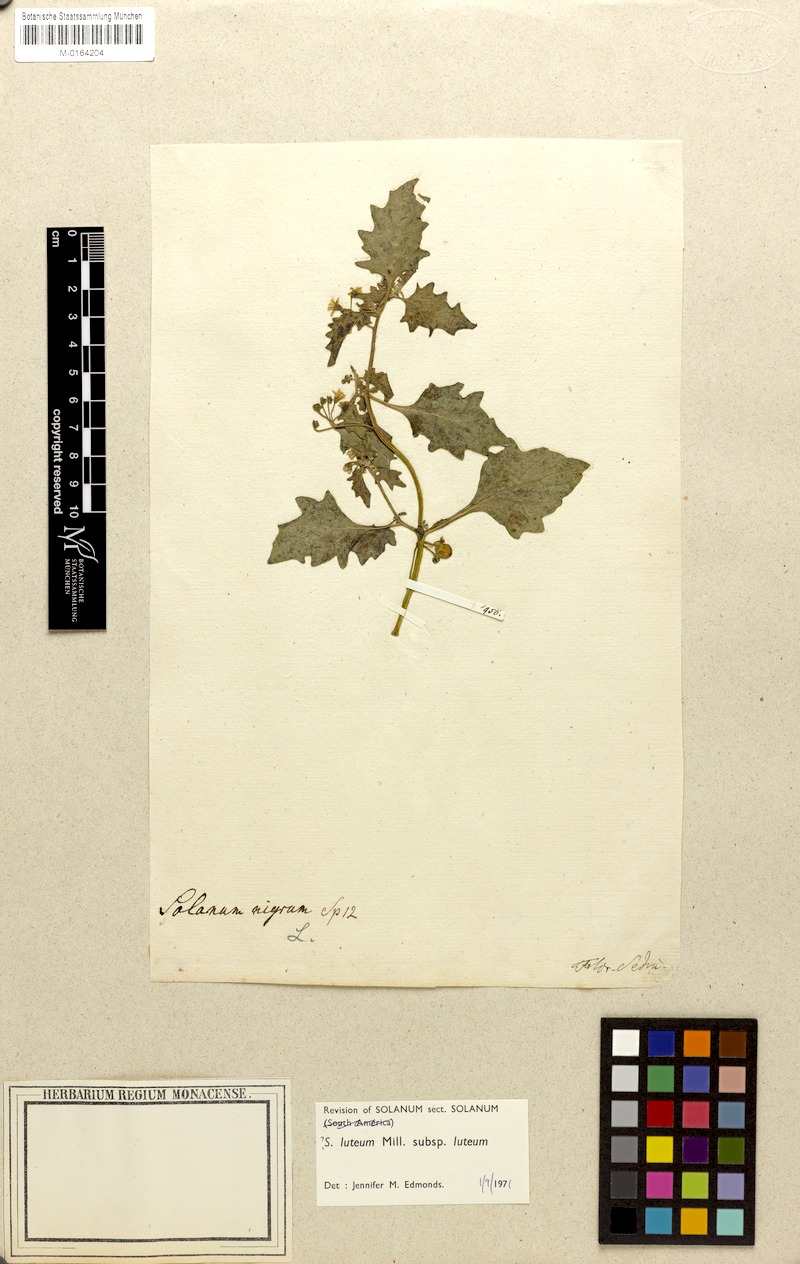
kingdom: Plantae
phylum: Tracheophyta
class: Magnoliopsida
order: Solanales
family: Solanaceae
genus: Solanum
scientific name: Solanum villosum
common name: Red nightshade
